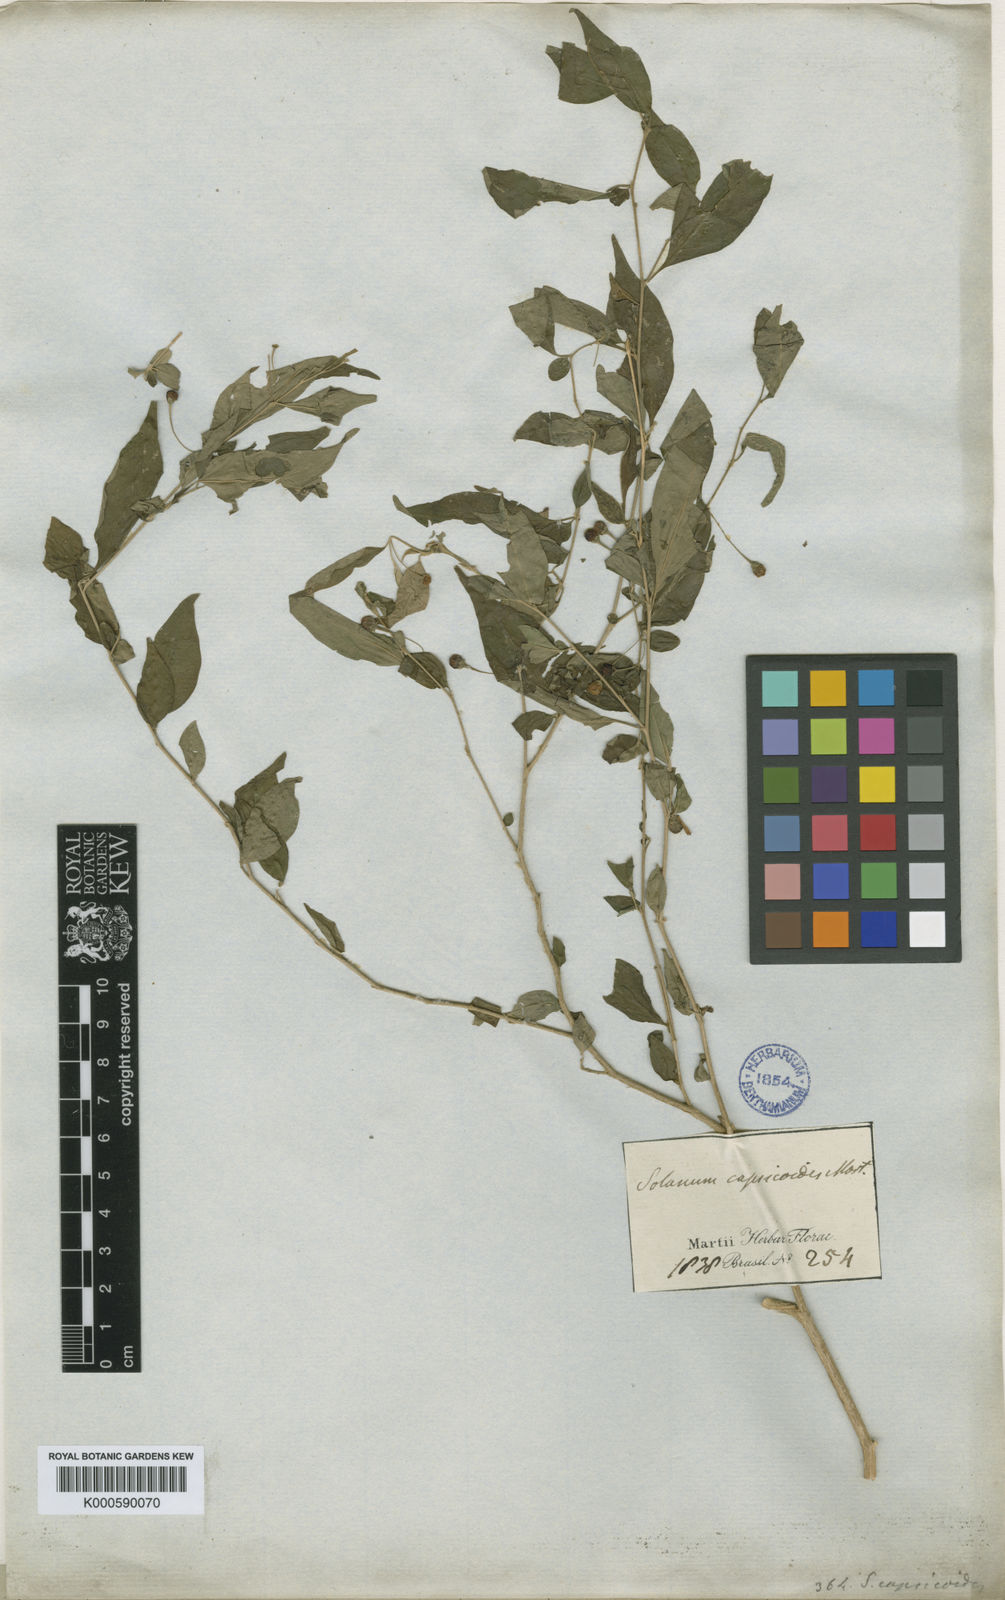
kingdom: Plantae
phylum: Tracheophyta
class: Magnoliopsida
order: Solanales
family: Solanaceae
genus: Solanum
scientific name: Solanum hirtellum
